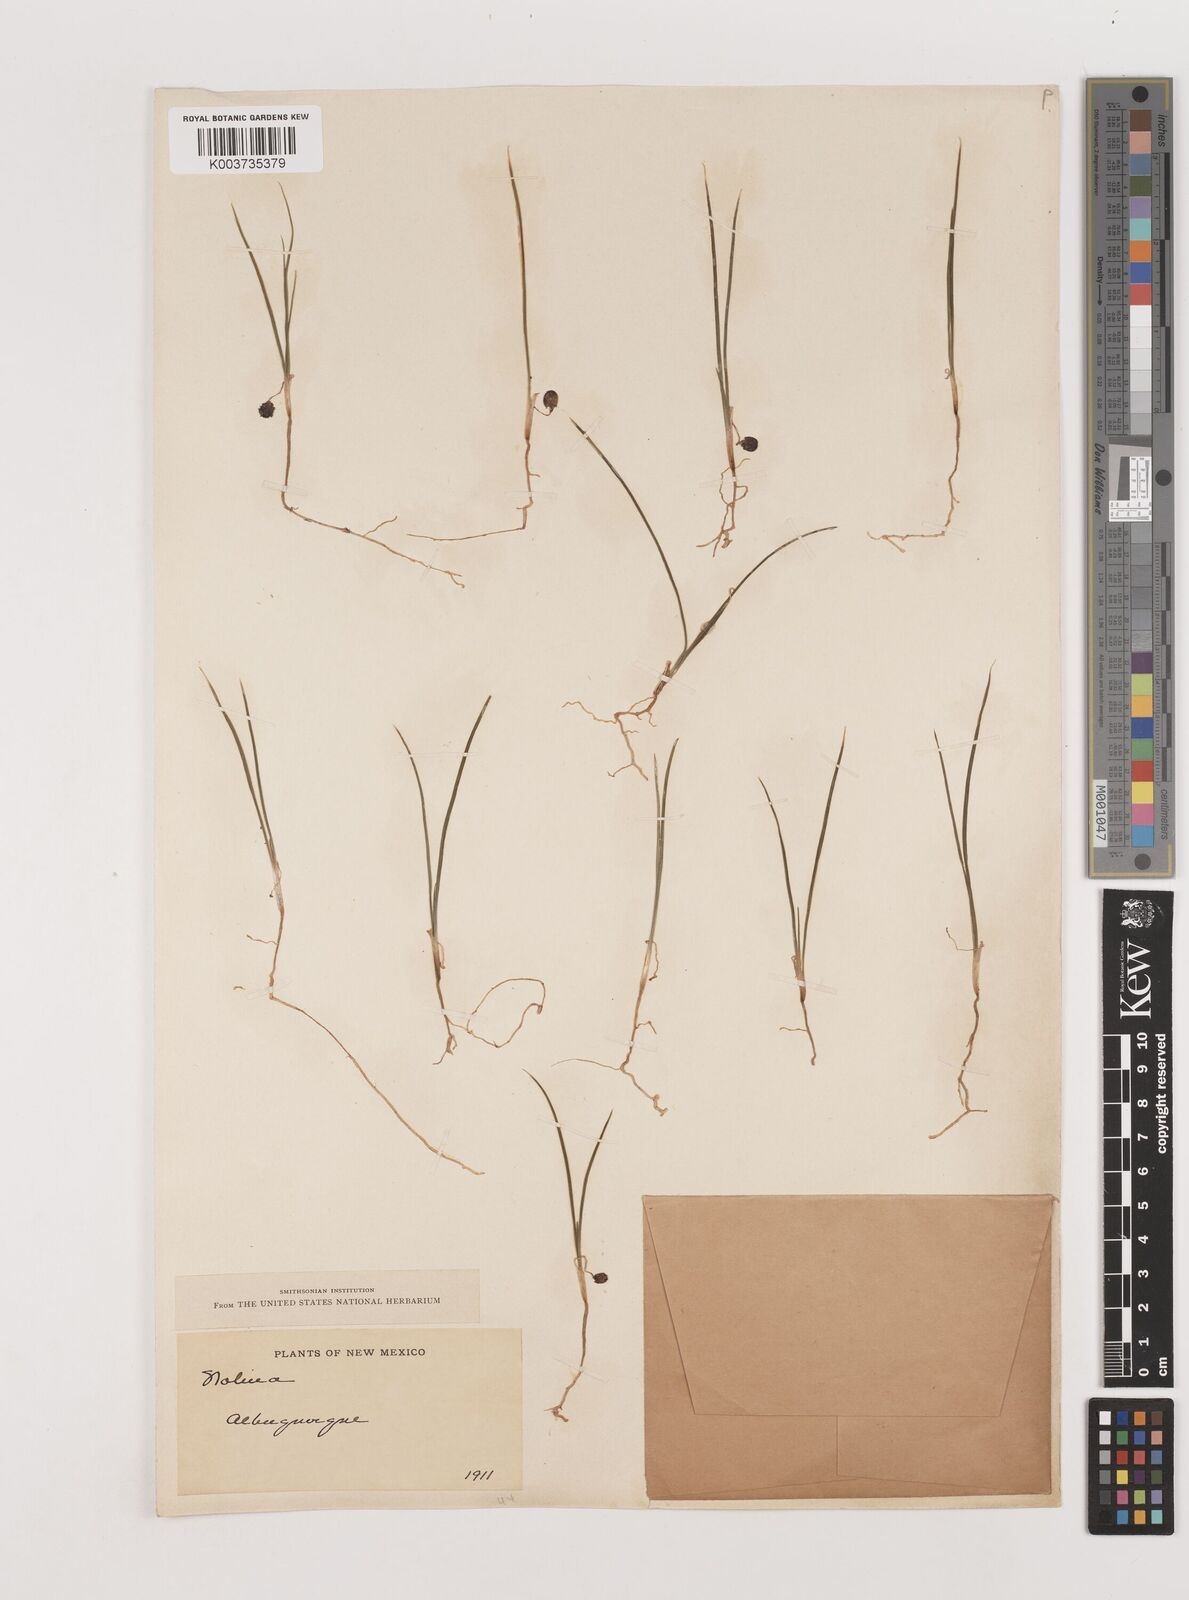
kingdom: Plantae
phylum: Tracheophyta
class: Liliopsida
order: Asparagales
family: Asparagaceae
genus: Nolina
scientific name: Nolina
